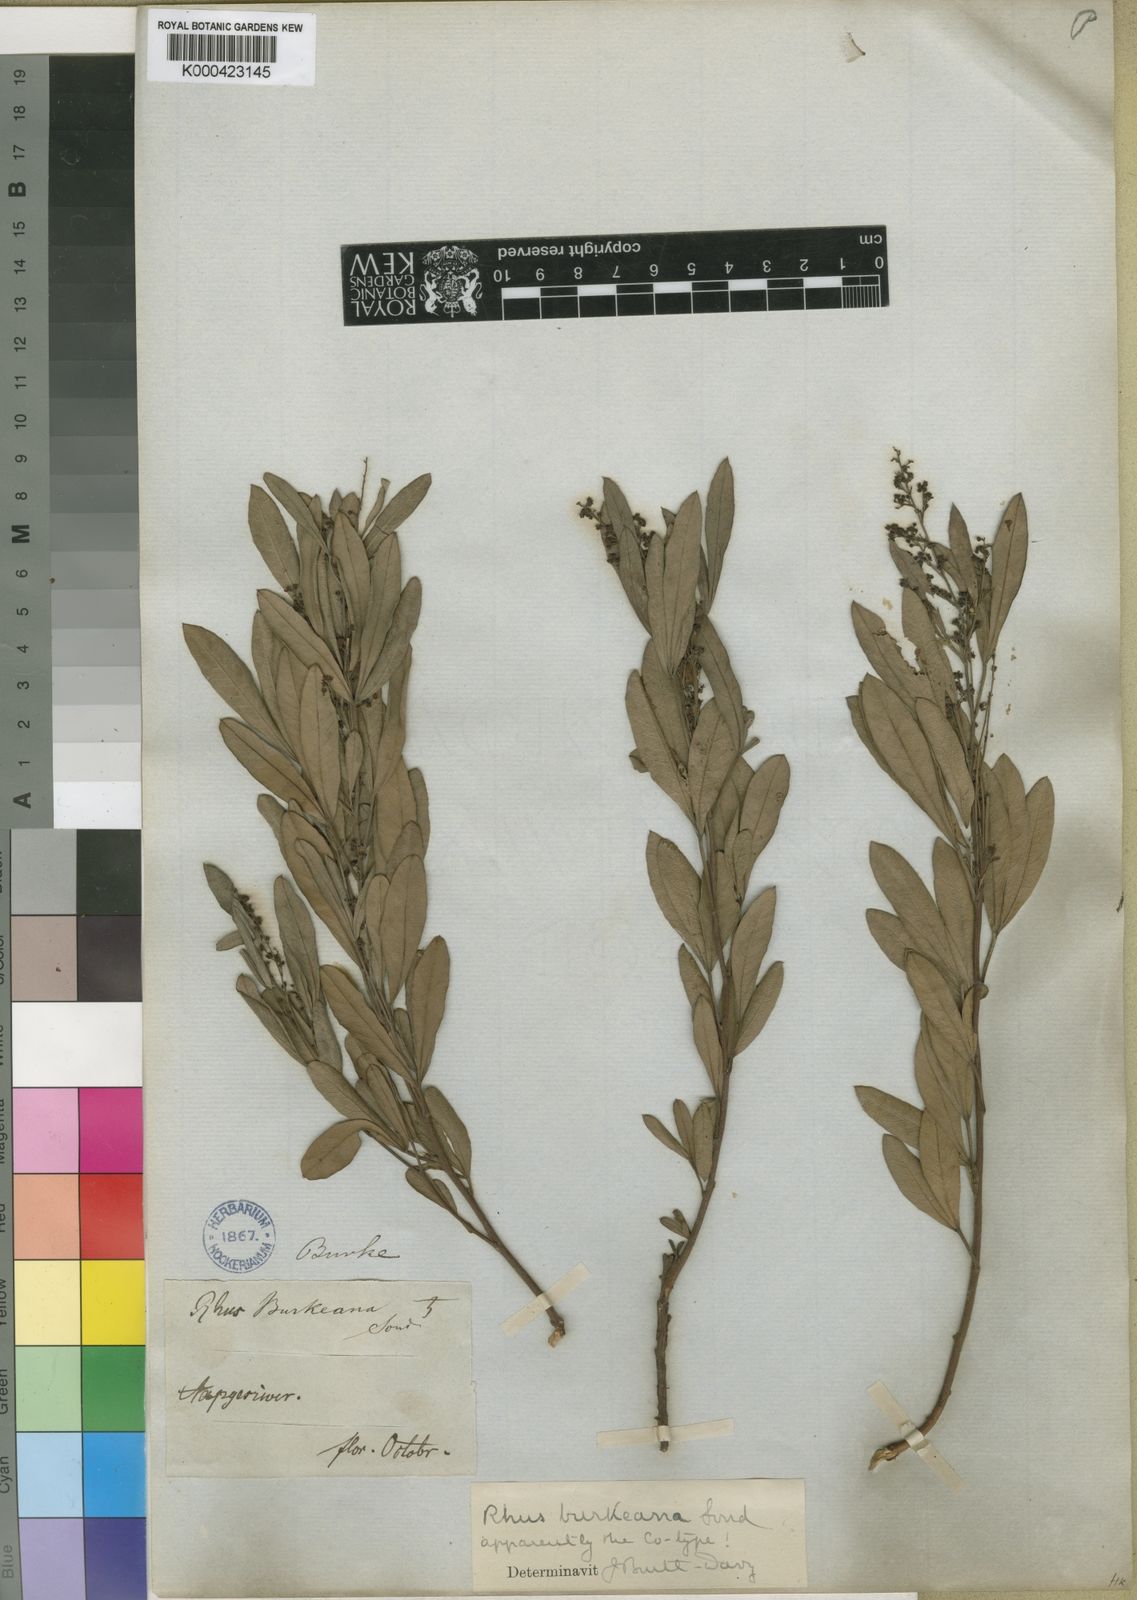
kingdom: Plantae
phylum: Tracheophyta
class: Magnoliopsida
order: Sapindales
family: Anacardiaceae
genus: Searsia
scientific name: Searsia magalismontana
